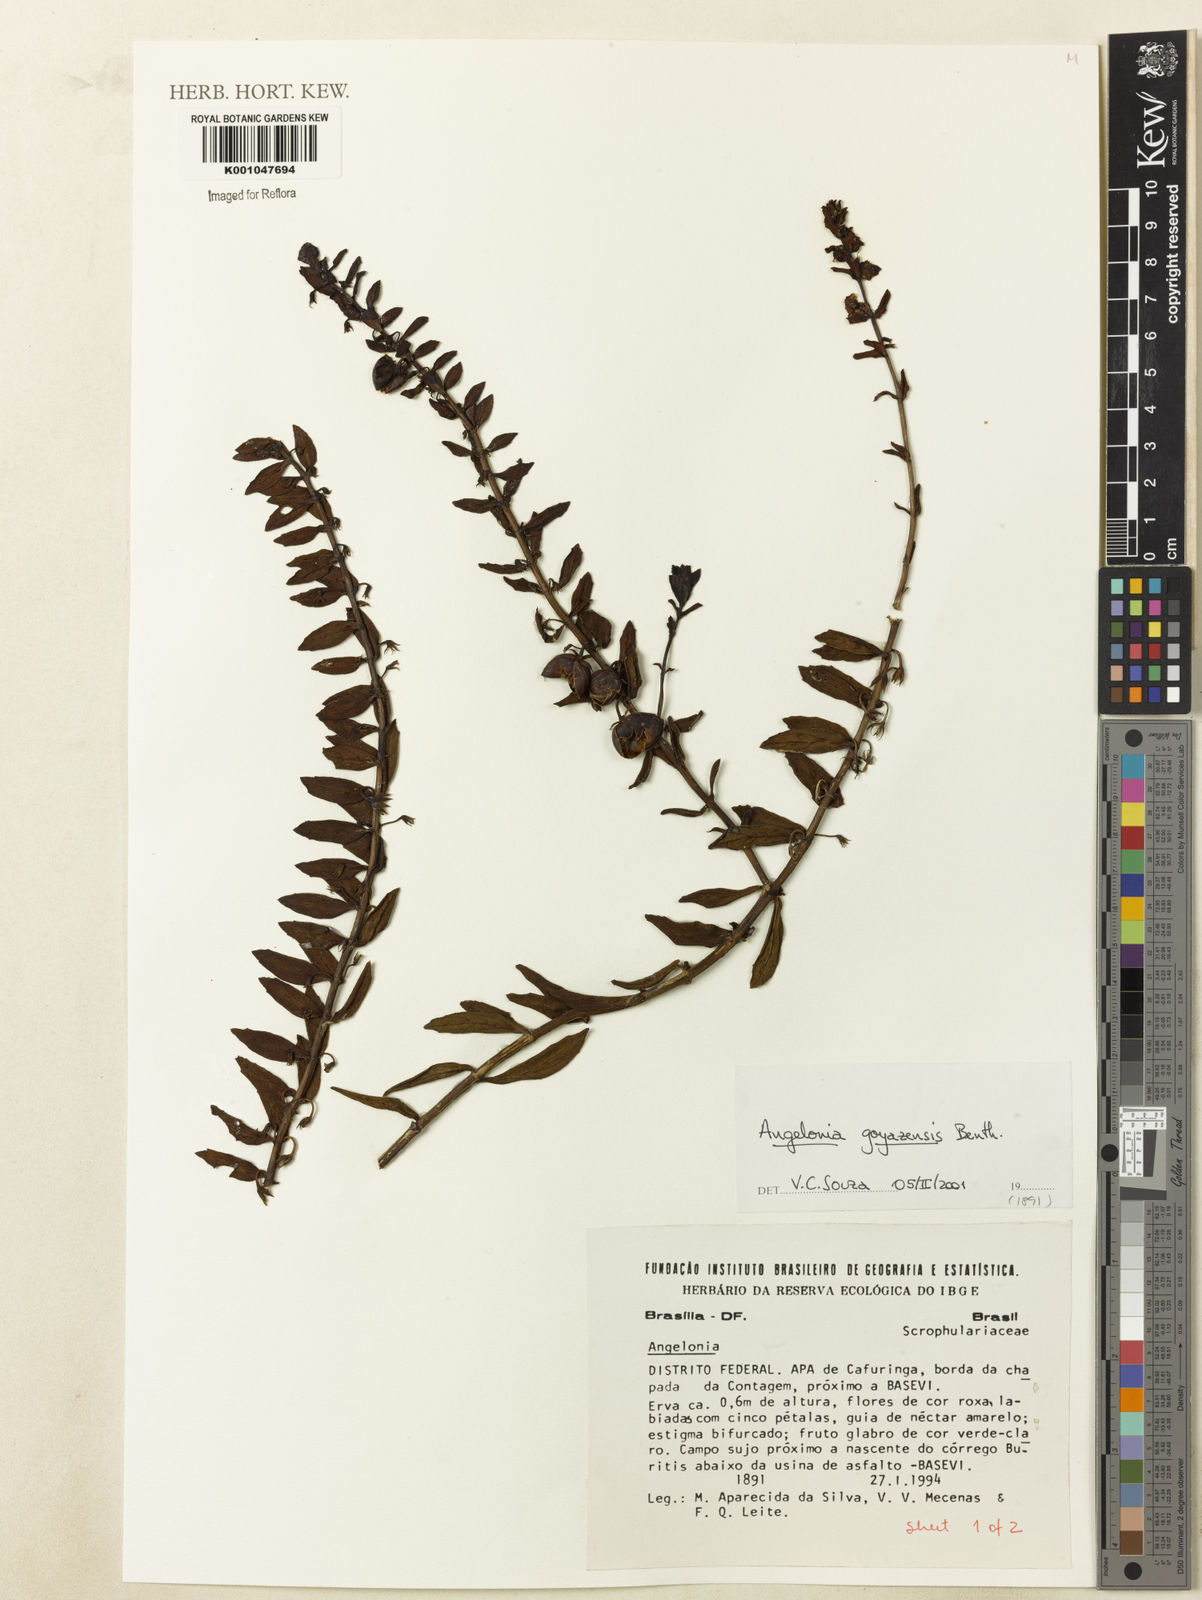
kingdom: Plantae
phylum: Tracheophyta
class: Magnoliopsida
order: Lamiales
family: Plantaginaceae
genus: Angelonia
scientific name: Angelonia goyazensis
